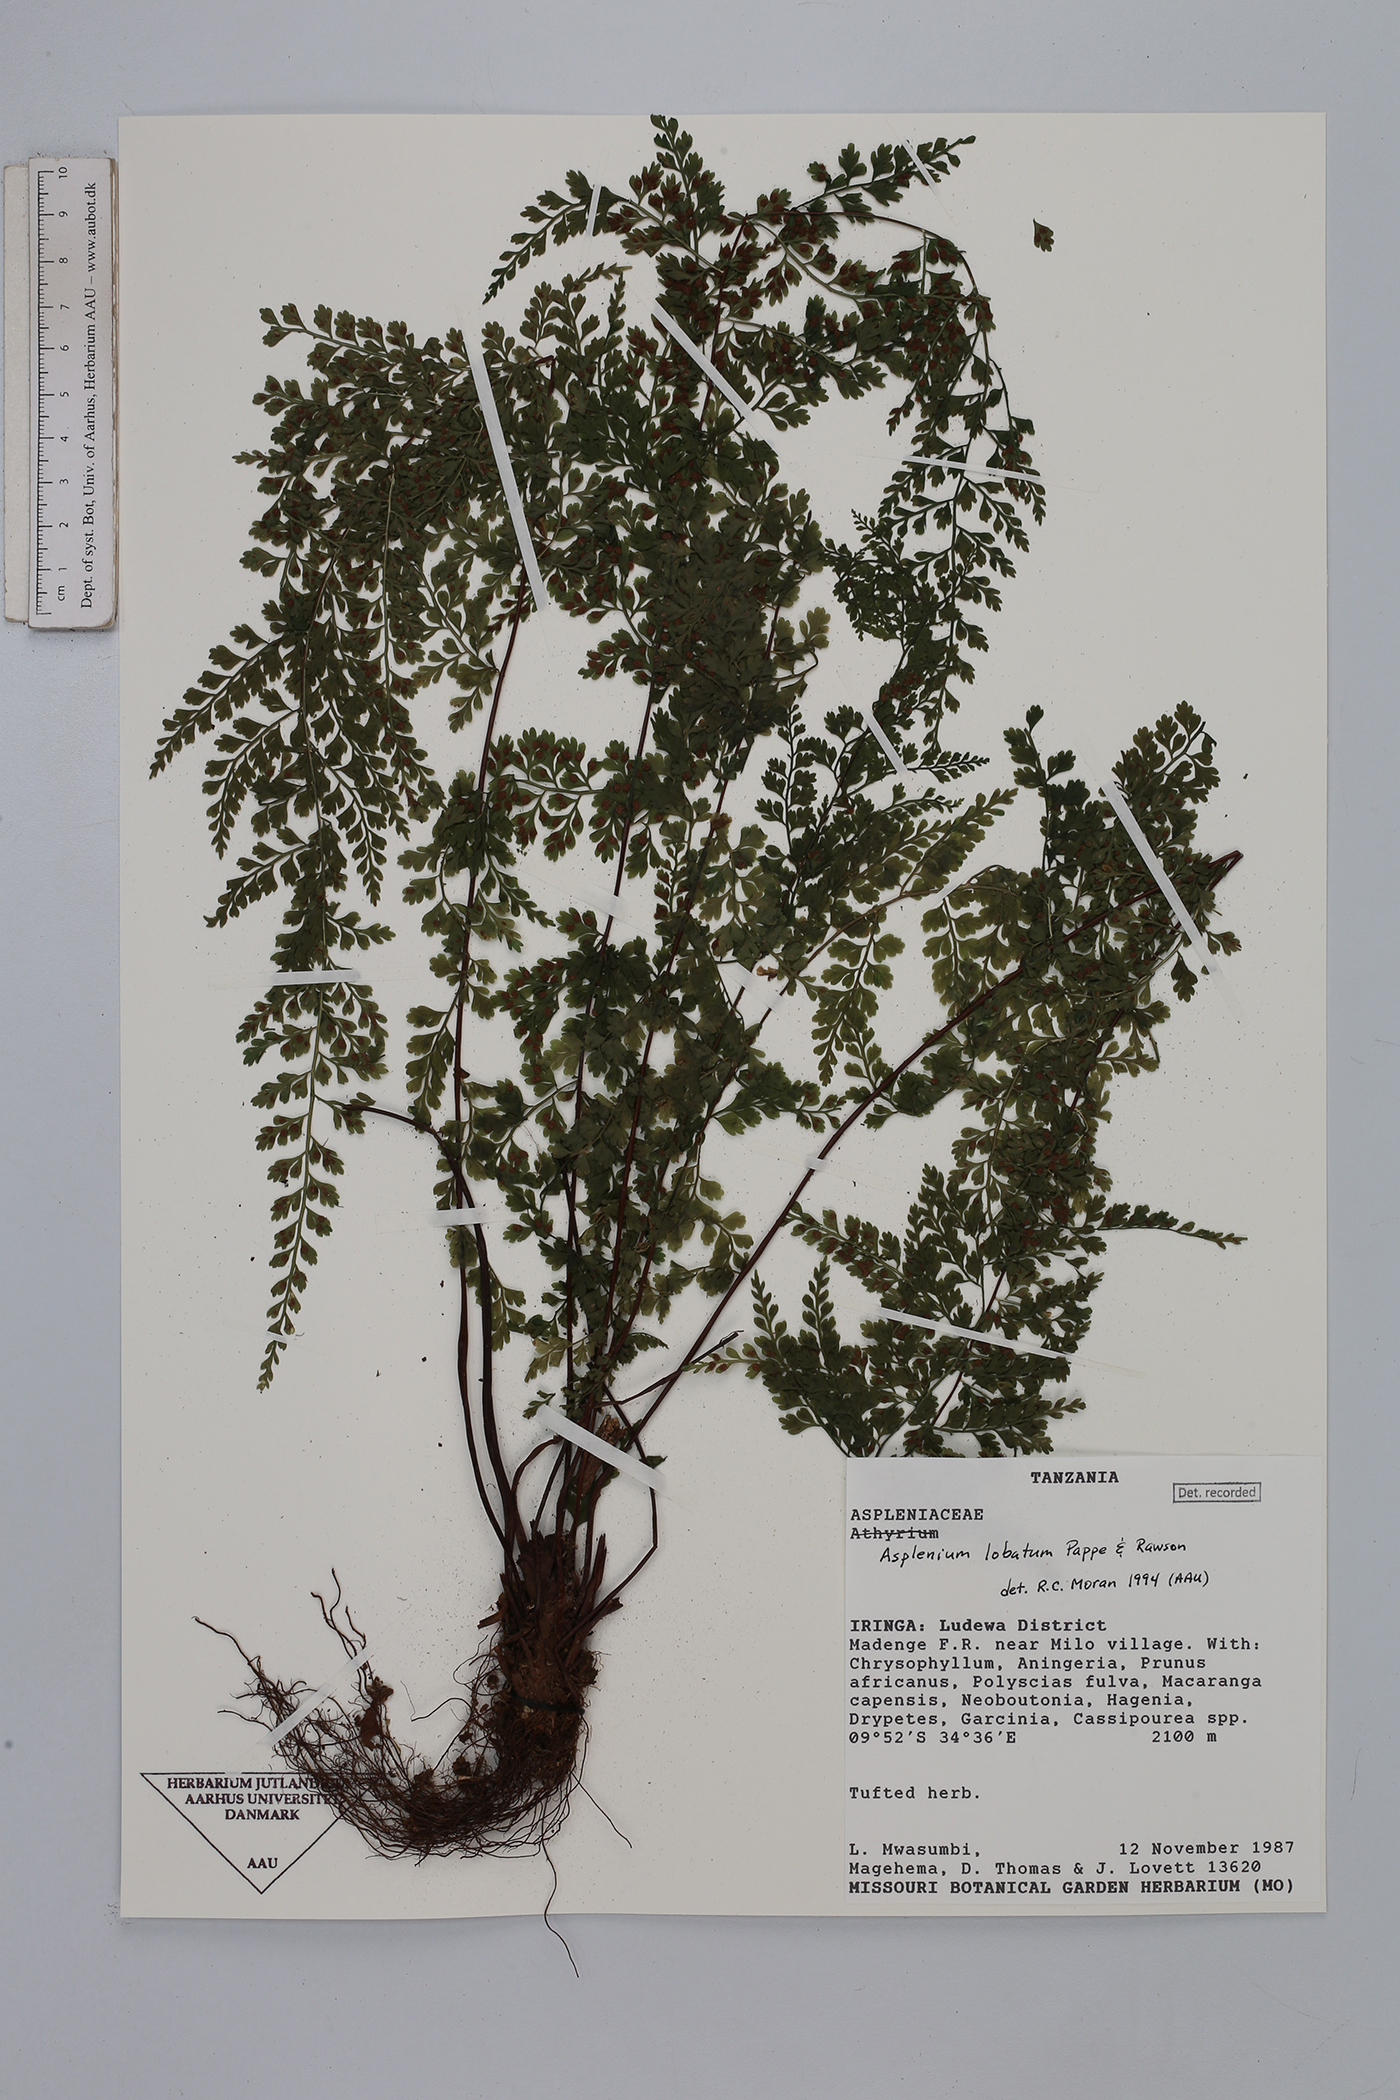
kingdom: Plantae
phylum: Tracheophyta
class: Polypodiopsida
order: Polypodiales
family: Aspleniaceae
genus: Asplenium
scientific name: Asplenium lobatum
